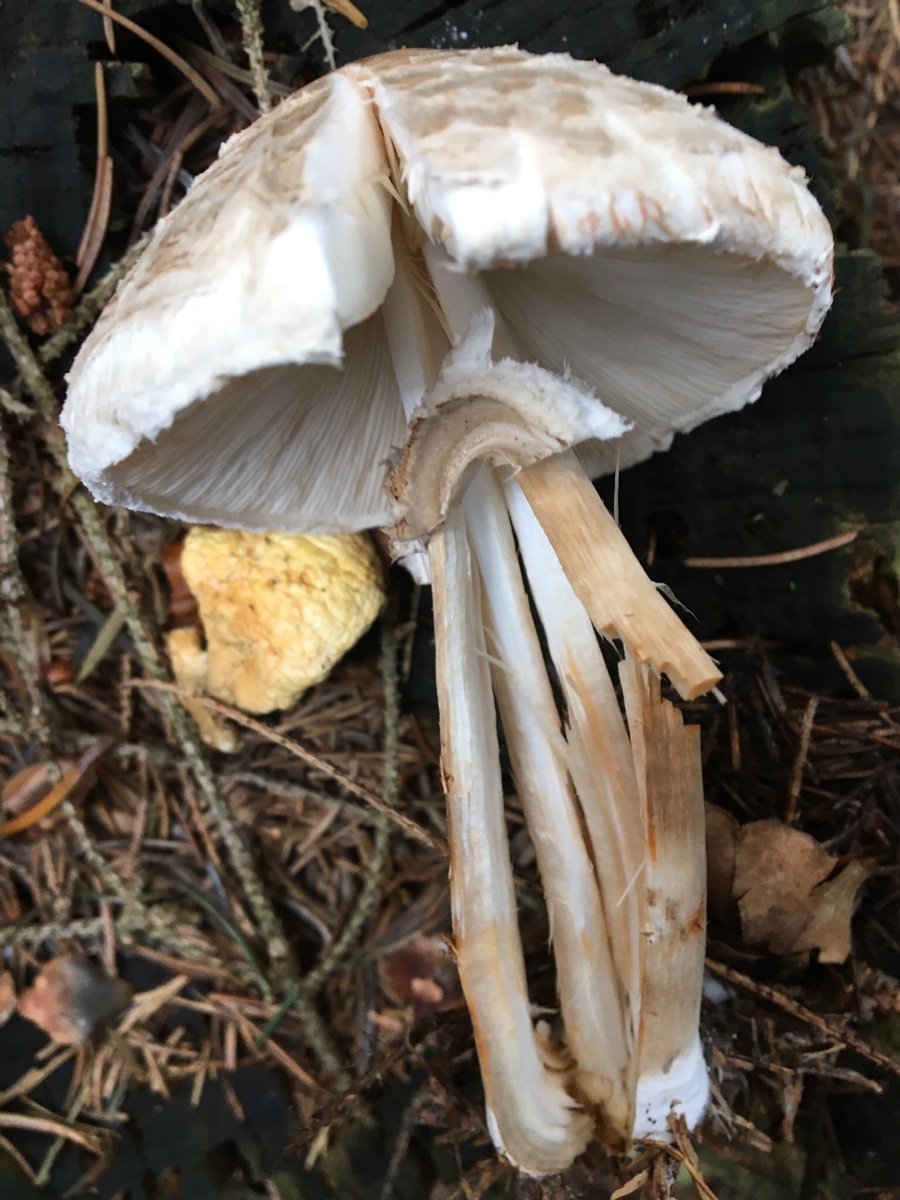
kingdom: Fungi
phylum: Basidiomycota
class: Agaricomycetes
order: Agaricales
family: Agaricaceae
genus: Chlorophyllum
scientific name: Chlorophyllum rhacodes
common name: ægte rabarberhat
